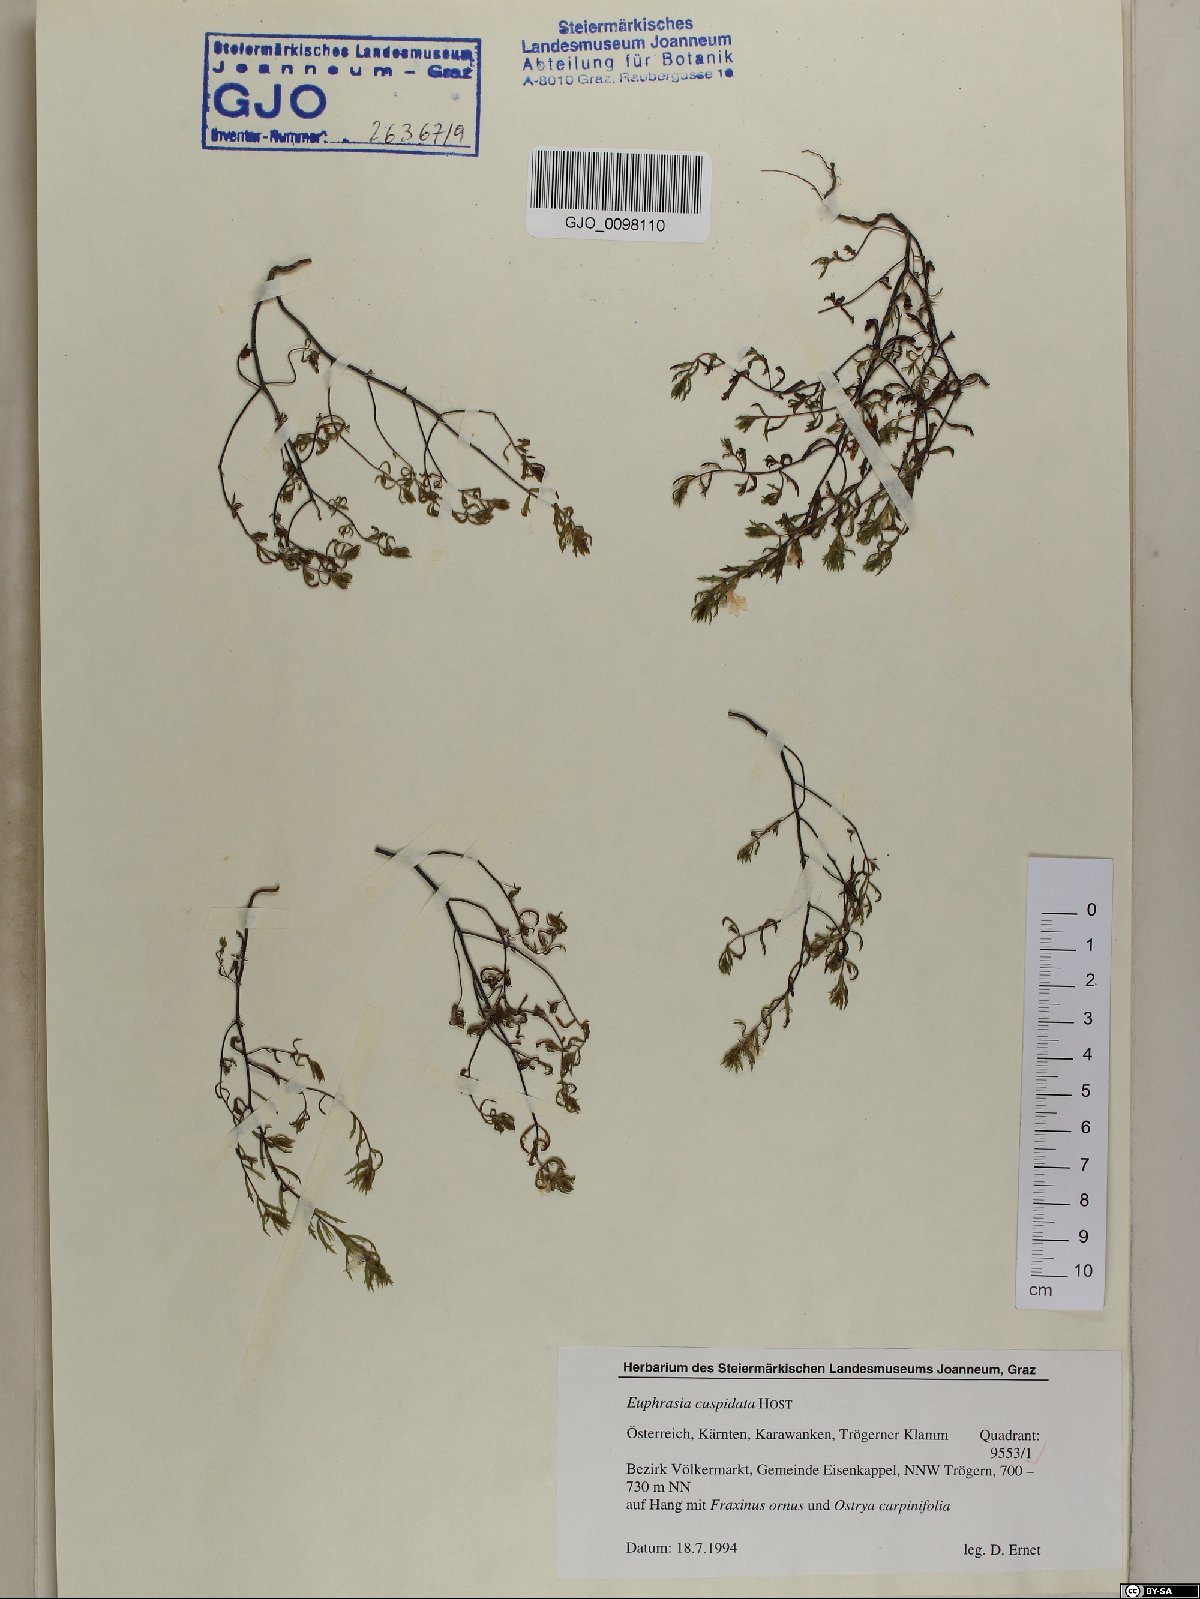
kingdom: Plantae
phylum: Tracheophyta
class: Magnoliopsida
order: Lamiales
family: Orobanchaceae
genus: Euphrasia
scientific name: Euphrasia cuspidata
